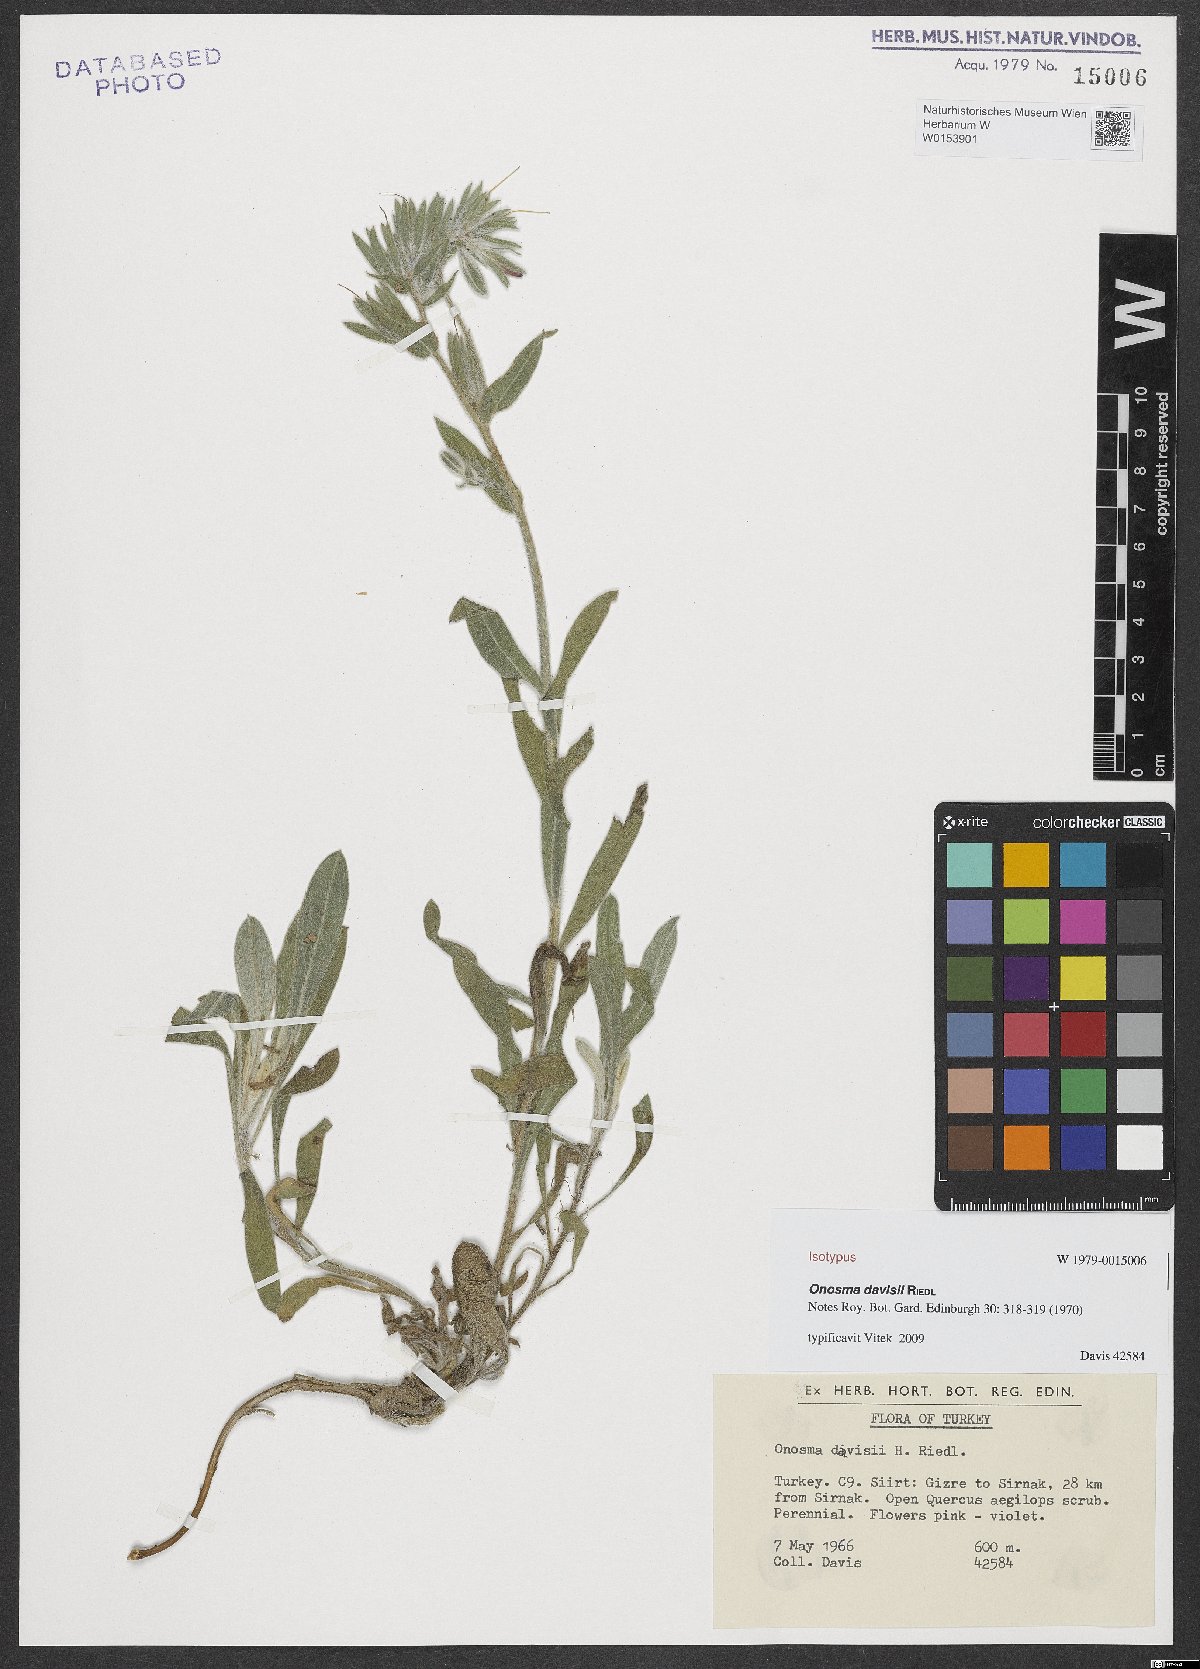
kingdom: Plantae
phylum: Tracheophyta
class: Magnoliopsida
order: Boraginales
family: Boraginaceae
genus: Onosma
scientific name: Onosma alborosea
